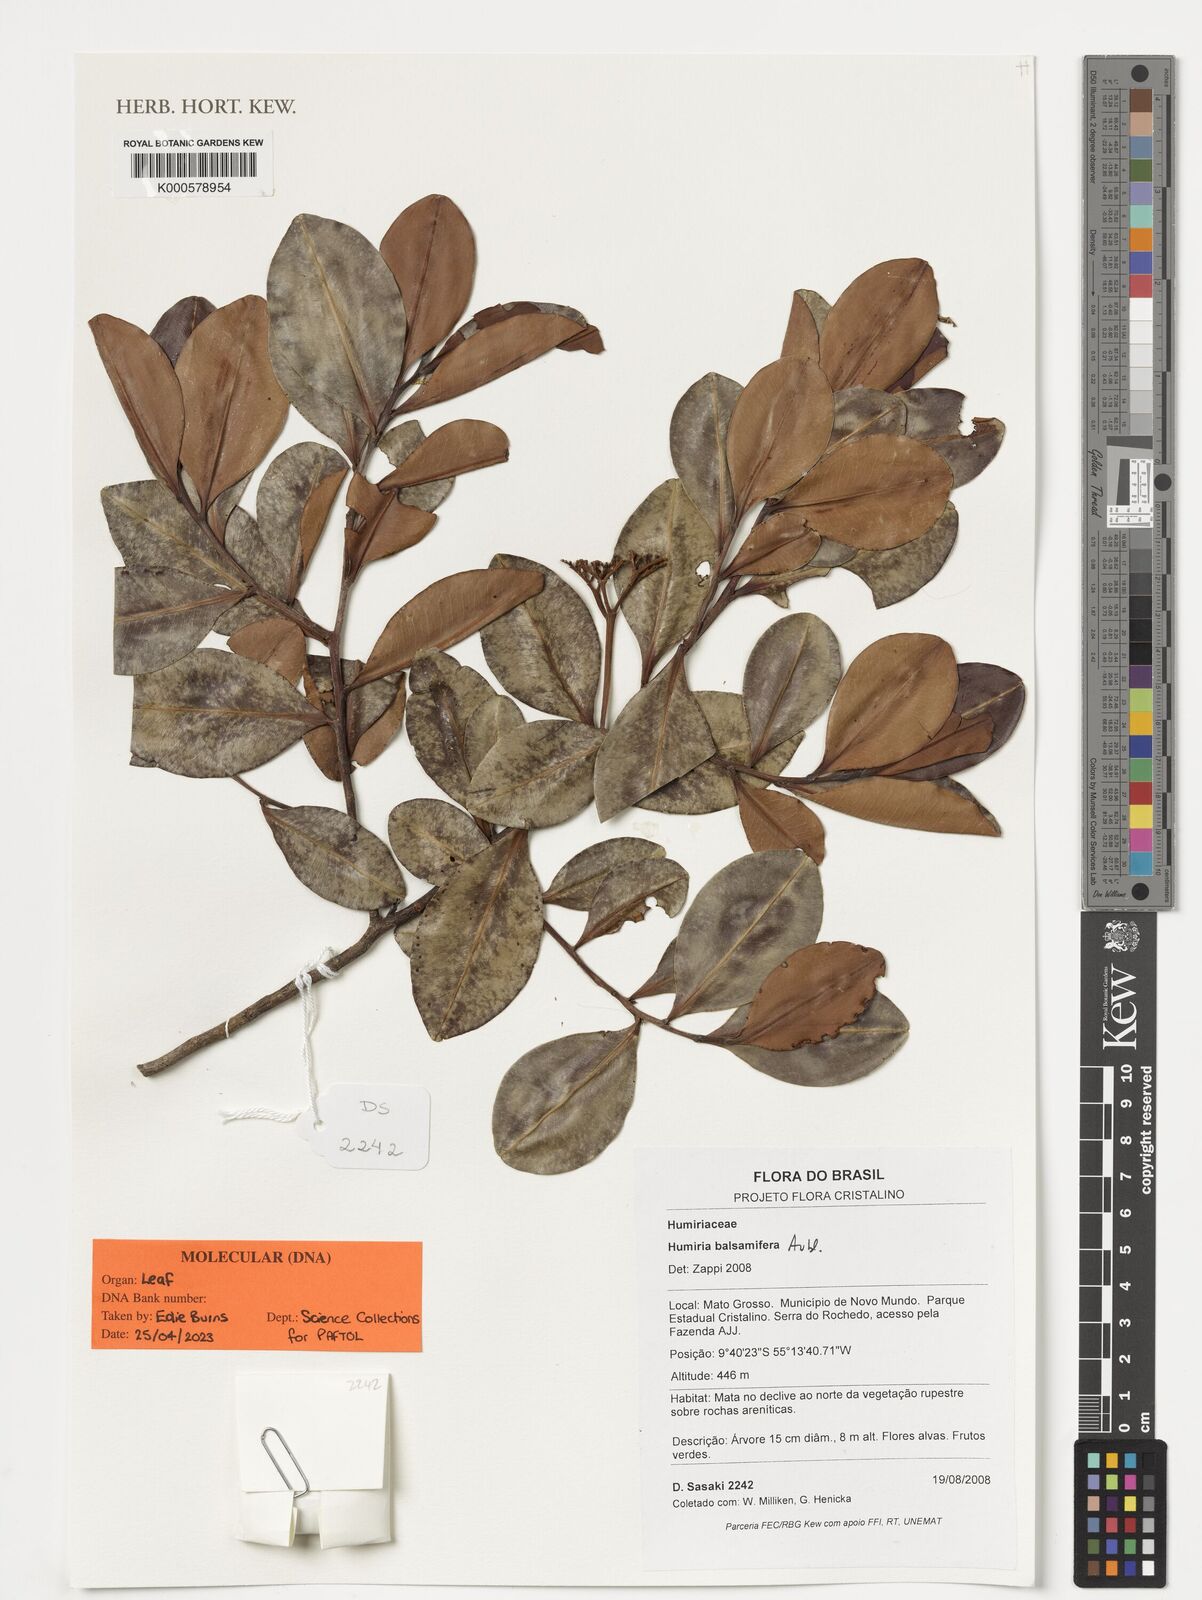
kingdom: Plantae
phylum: Tracheophyta
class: Magnoliopsida
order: Malpighiales
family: Humiriaceae
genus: Humiria
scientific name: Humiria balsamifera
